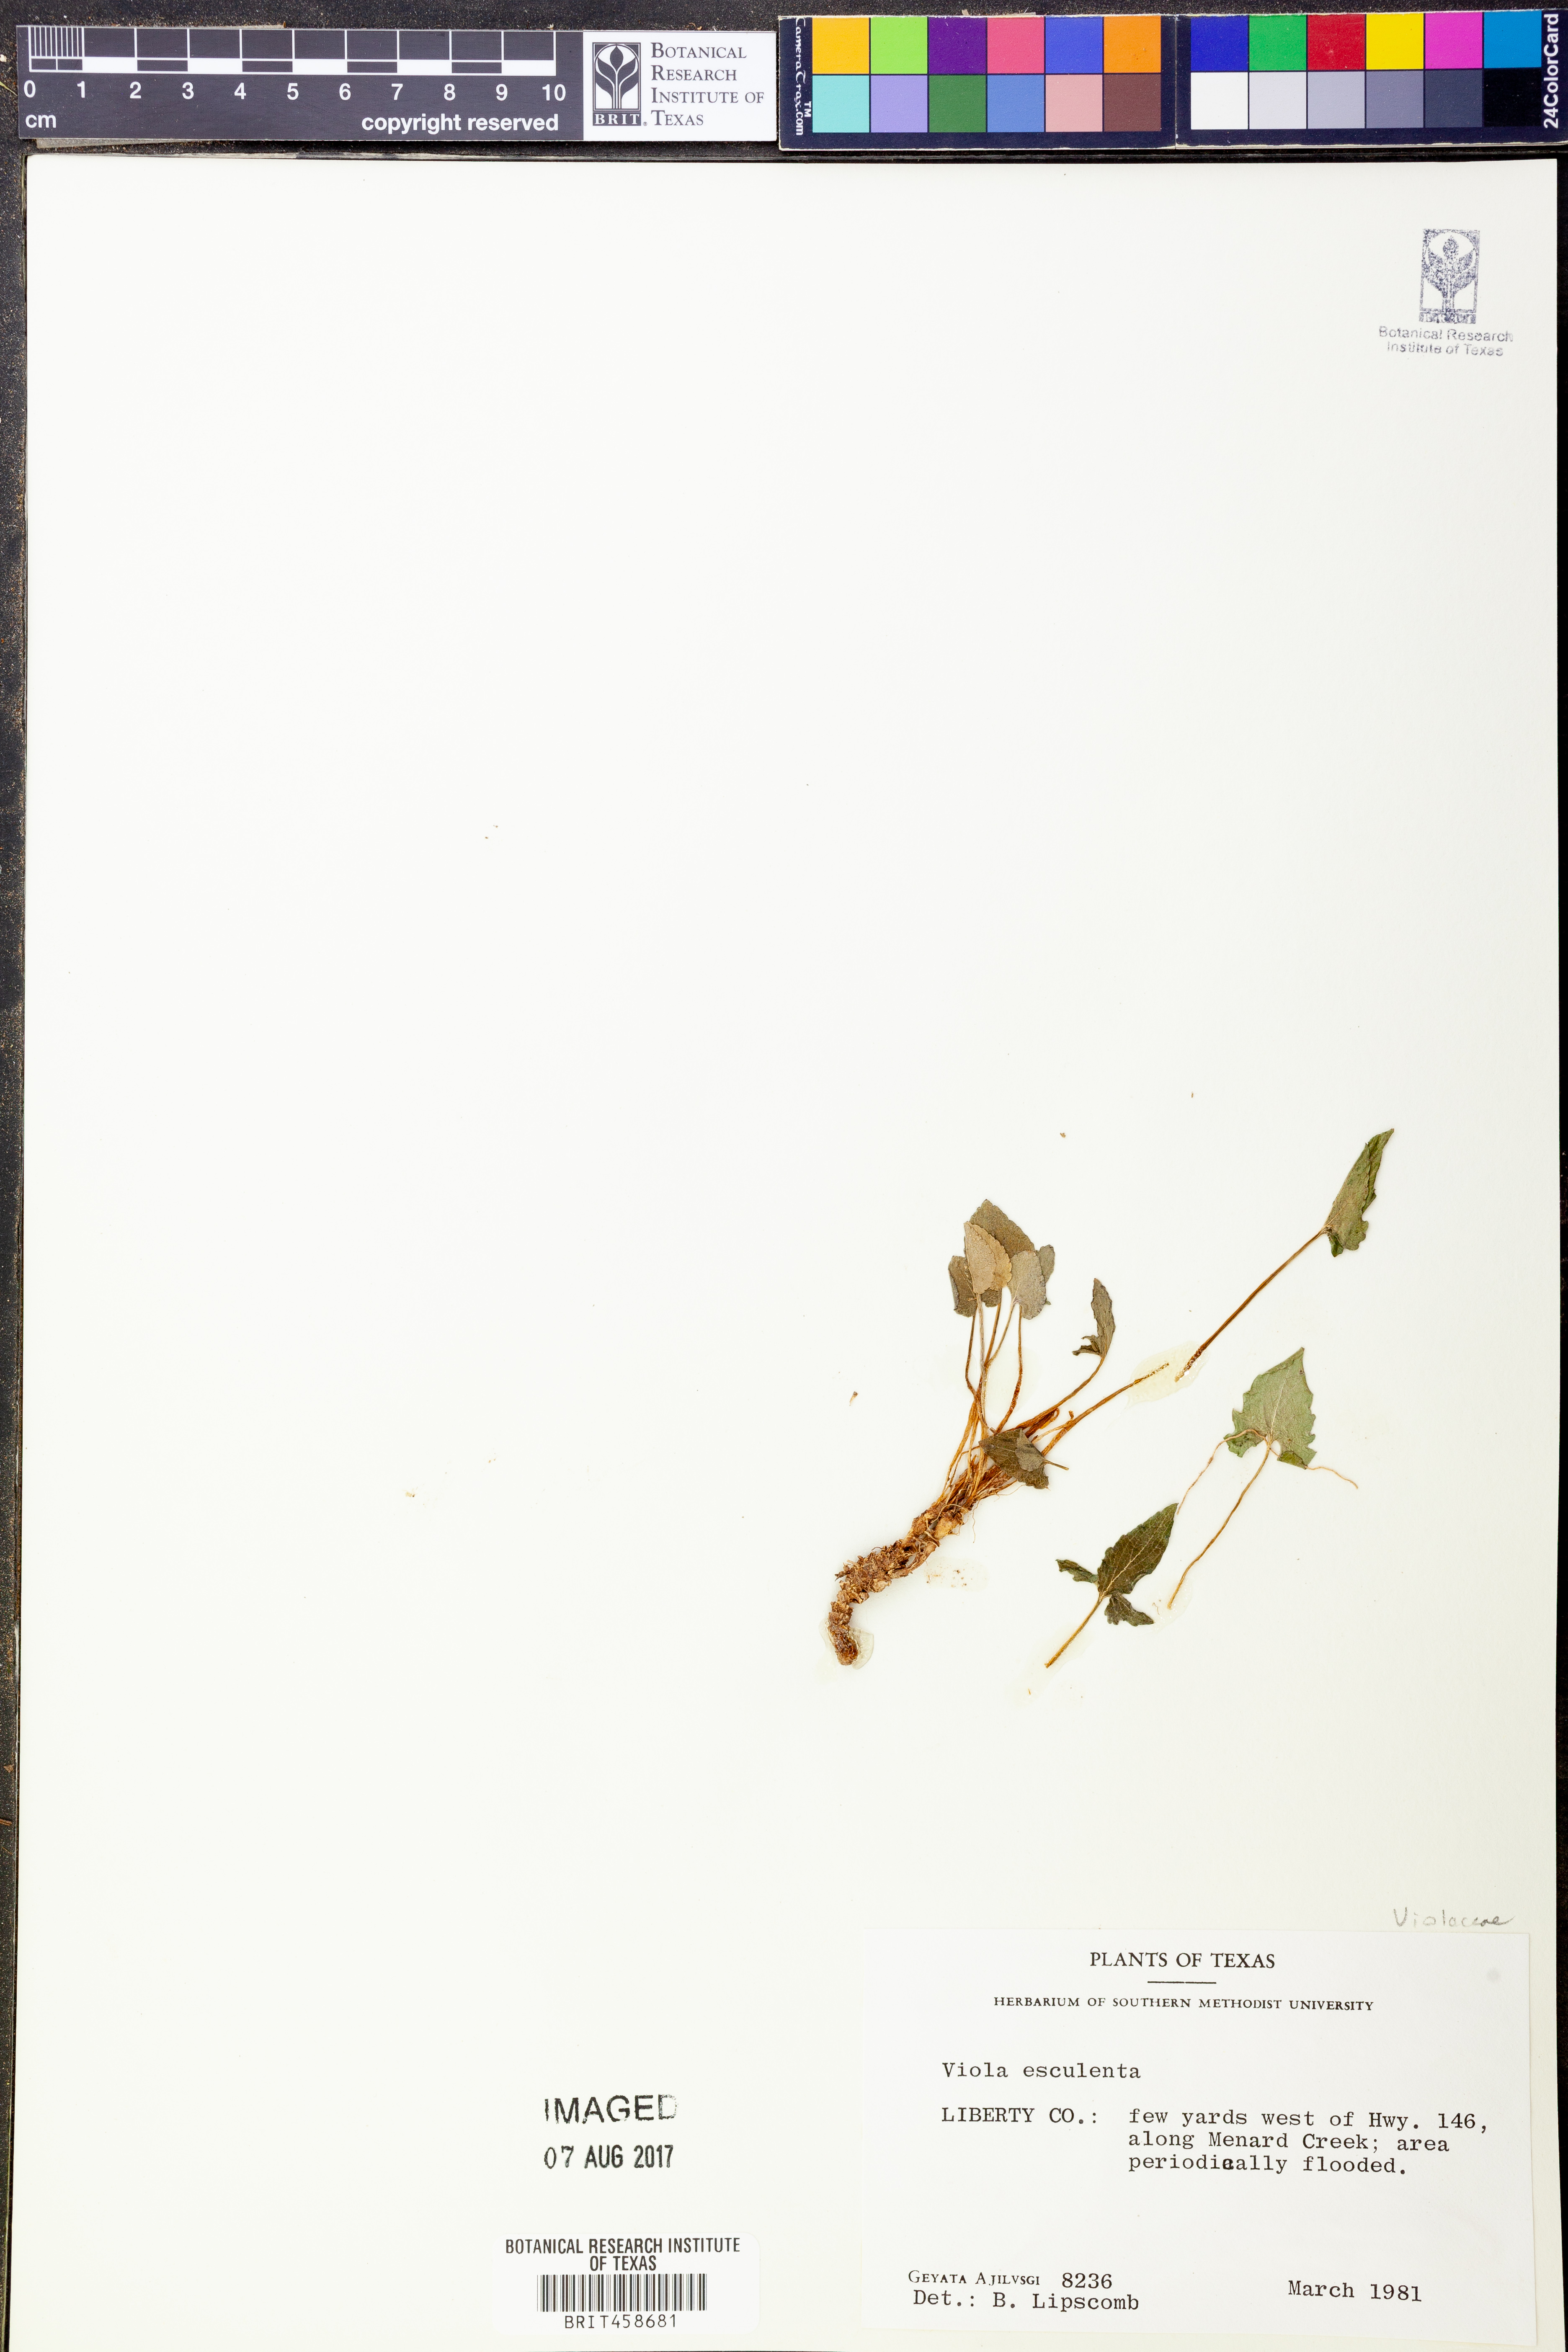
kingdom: Plantae
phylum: Tracheophyta
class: Magnoliopsida
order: Malpighiales
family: Violaceae
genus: Viola
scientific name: Viola esculenta
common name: Salad violet
